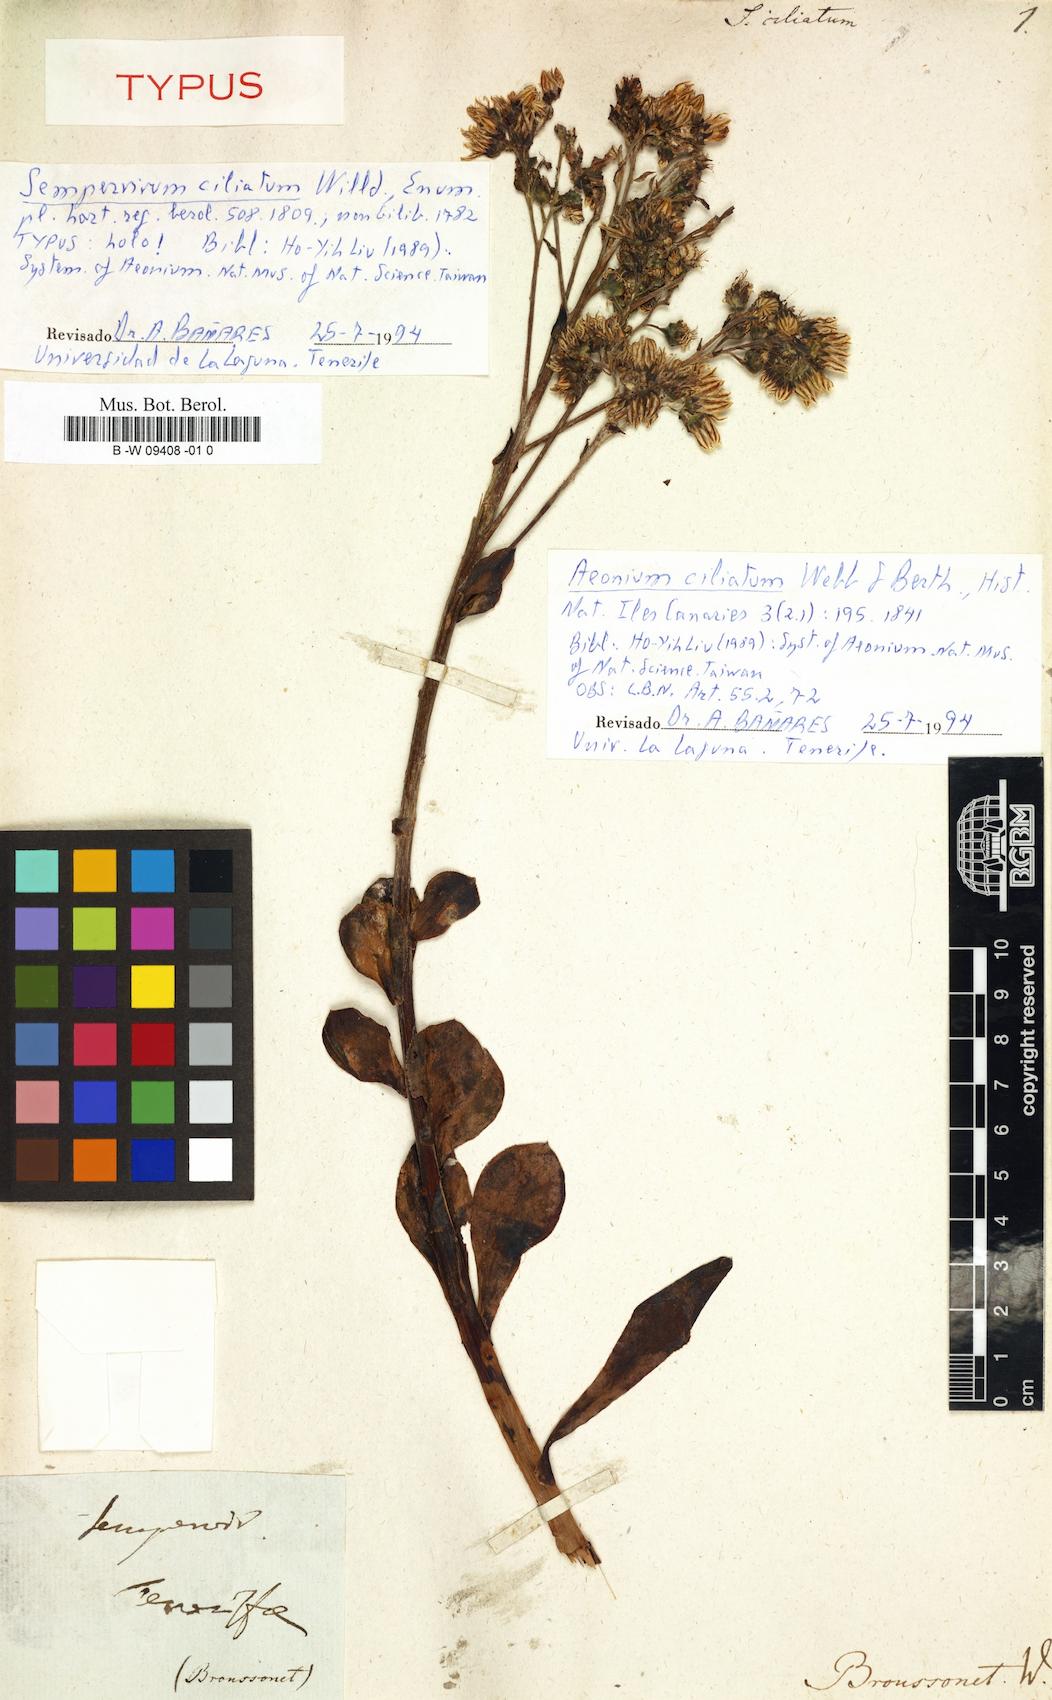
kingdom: Plantae
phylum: Tracheophyta
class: Magnoliopsida
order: Saxifragales
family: Crassulaceae
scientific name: Crassulaceae
